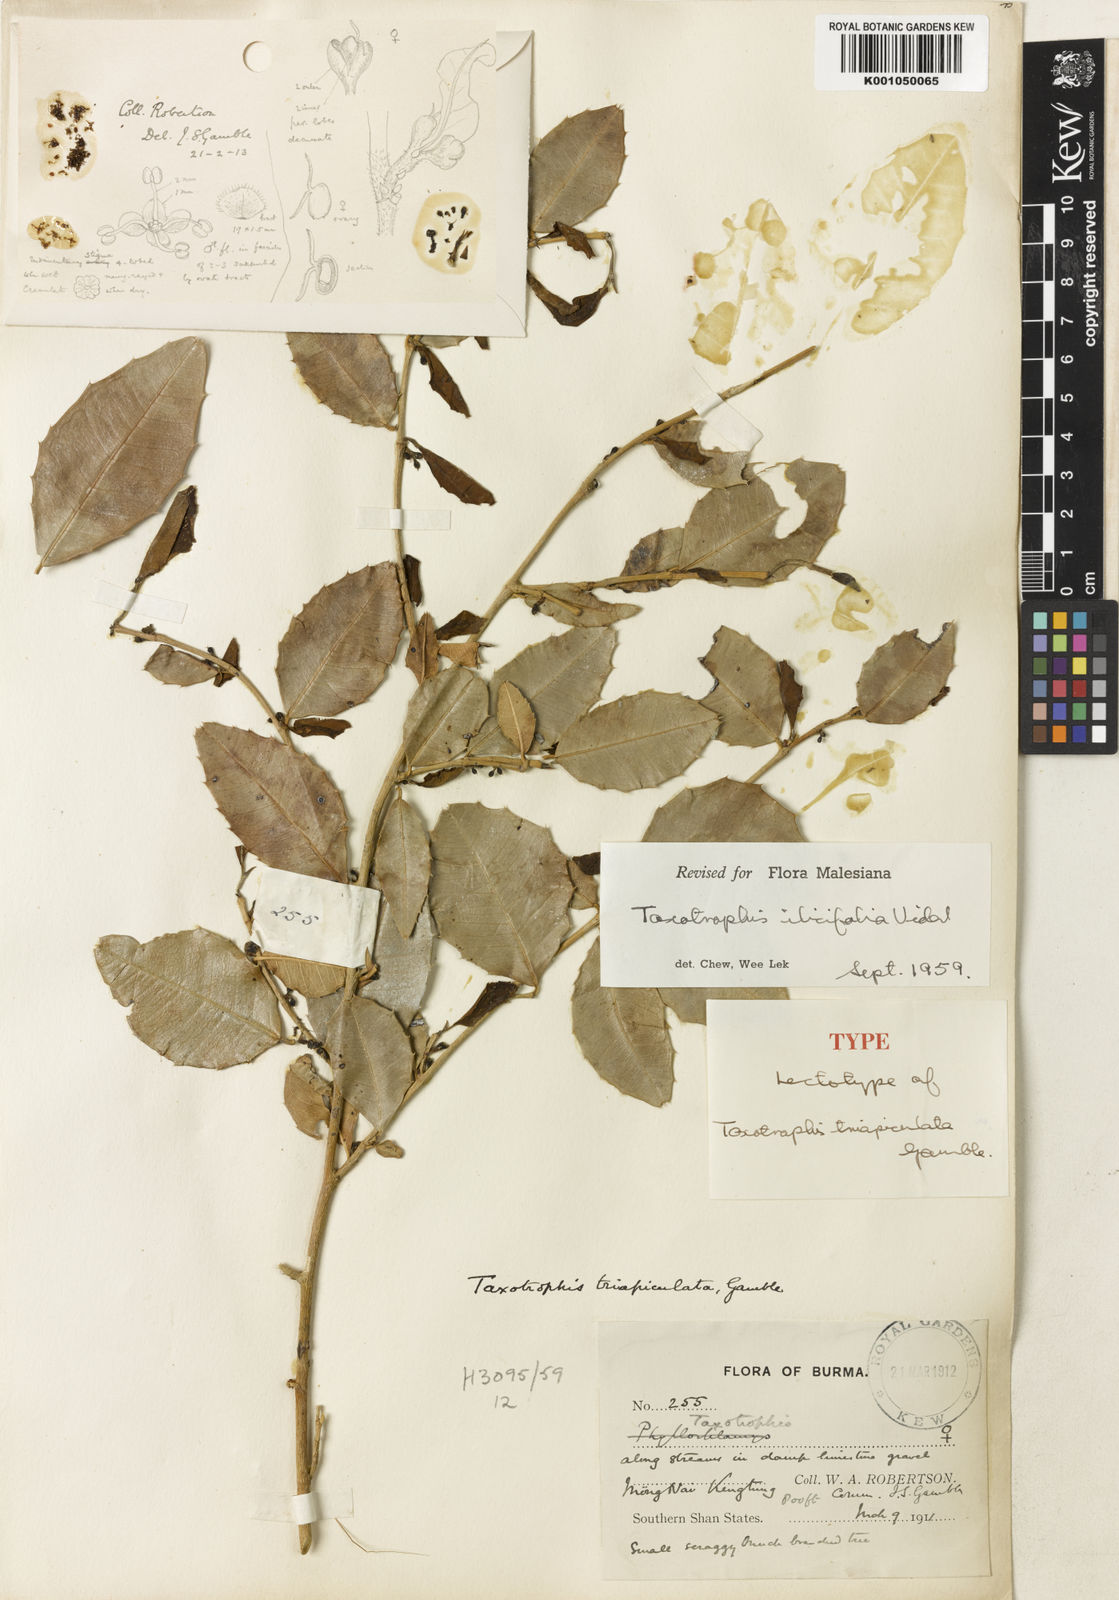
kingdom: Plantae
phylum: Tracheophyta
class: Magnoliopsida
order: Rosales
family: Moraceae
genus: Taxotrophis
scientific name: Taxotrophis ilicifolia
